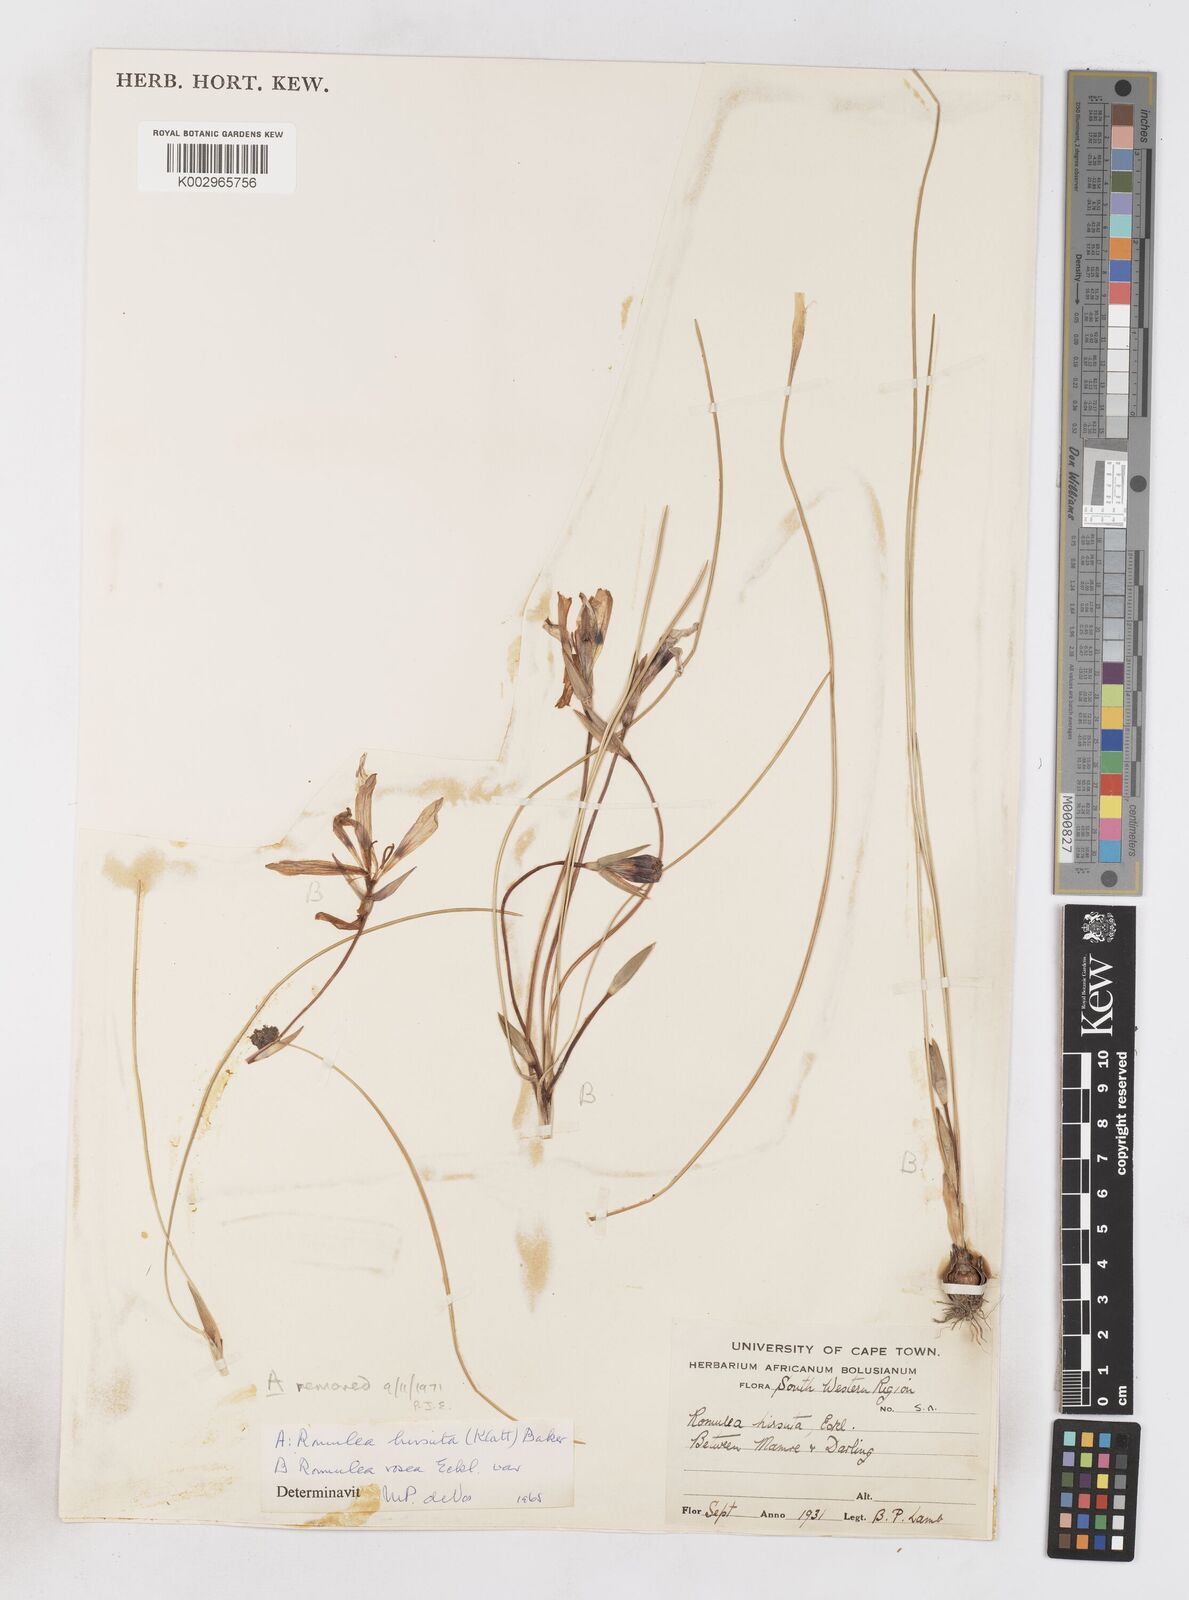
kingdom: Plantae
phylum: Tracheophyta
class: Liliopsida
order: Asparagales
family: Iridaceae
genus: Romulea
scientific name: Romulea rosea
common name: Oniongrass
